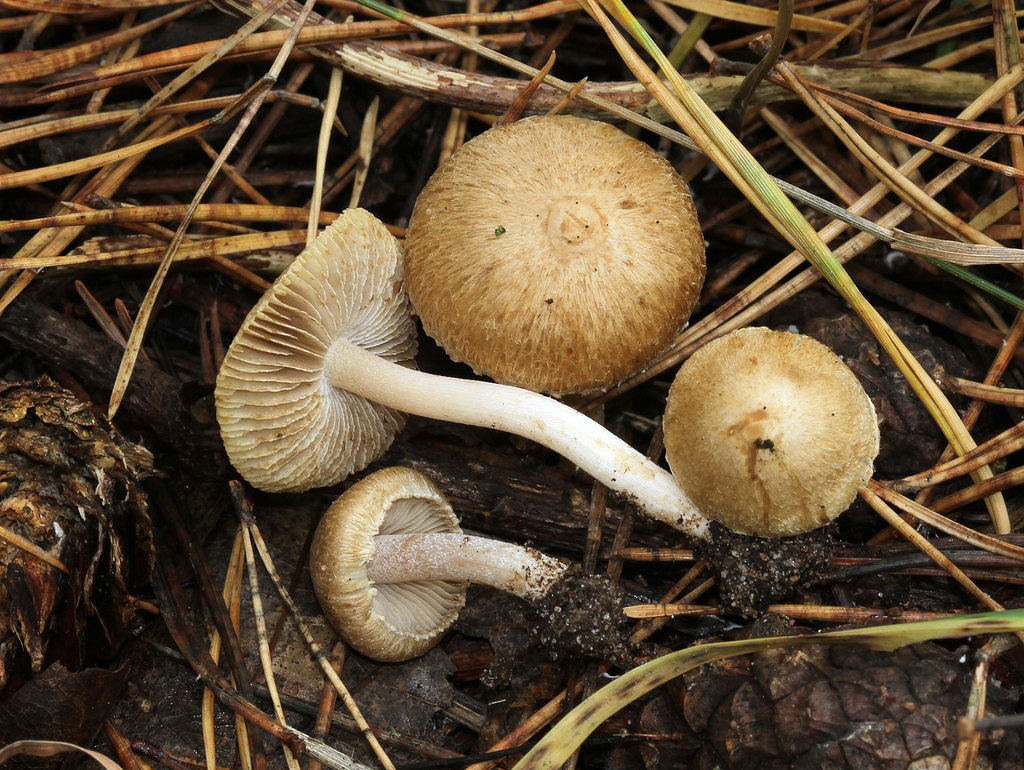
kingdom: Fungi
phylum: Basidiomycota
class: Agaricomycetes
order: Agaricales
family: Inocybaceae
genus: Inocybe
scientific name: Inocybe sindonia
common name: bleg trævlhat
